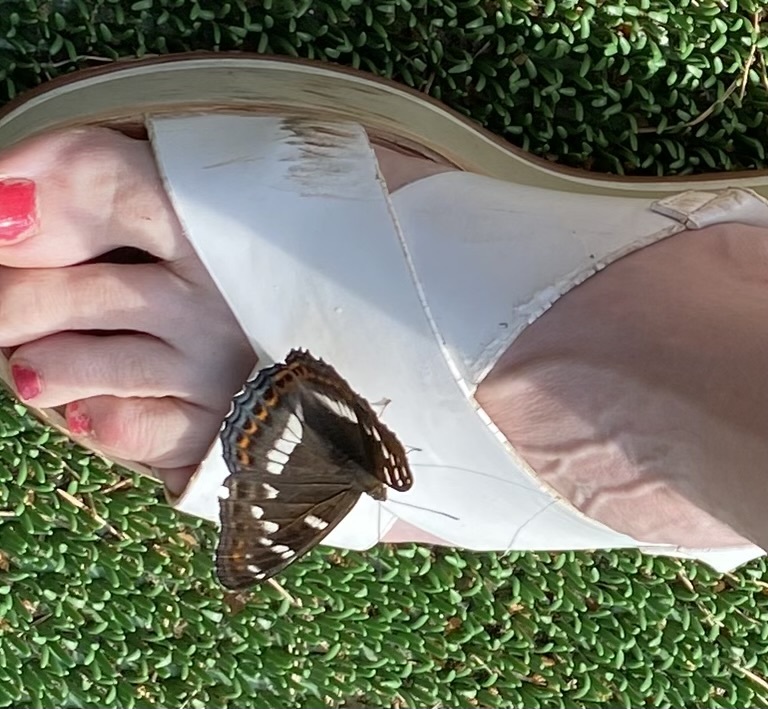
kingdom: Animalia
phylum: Arthropoda
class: Insecta
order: Lepidoptera
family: Nymphalidae
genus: Limenitis
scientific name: Limenitis populi
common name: Poplar admiral
